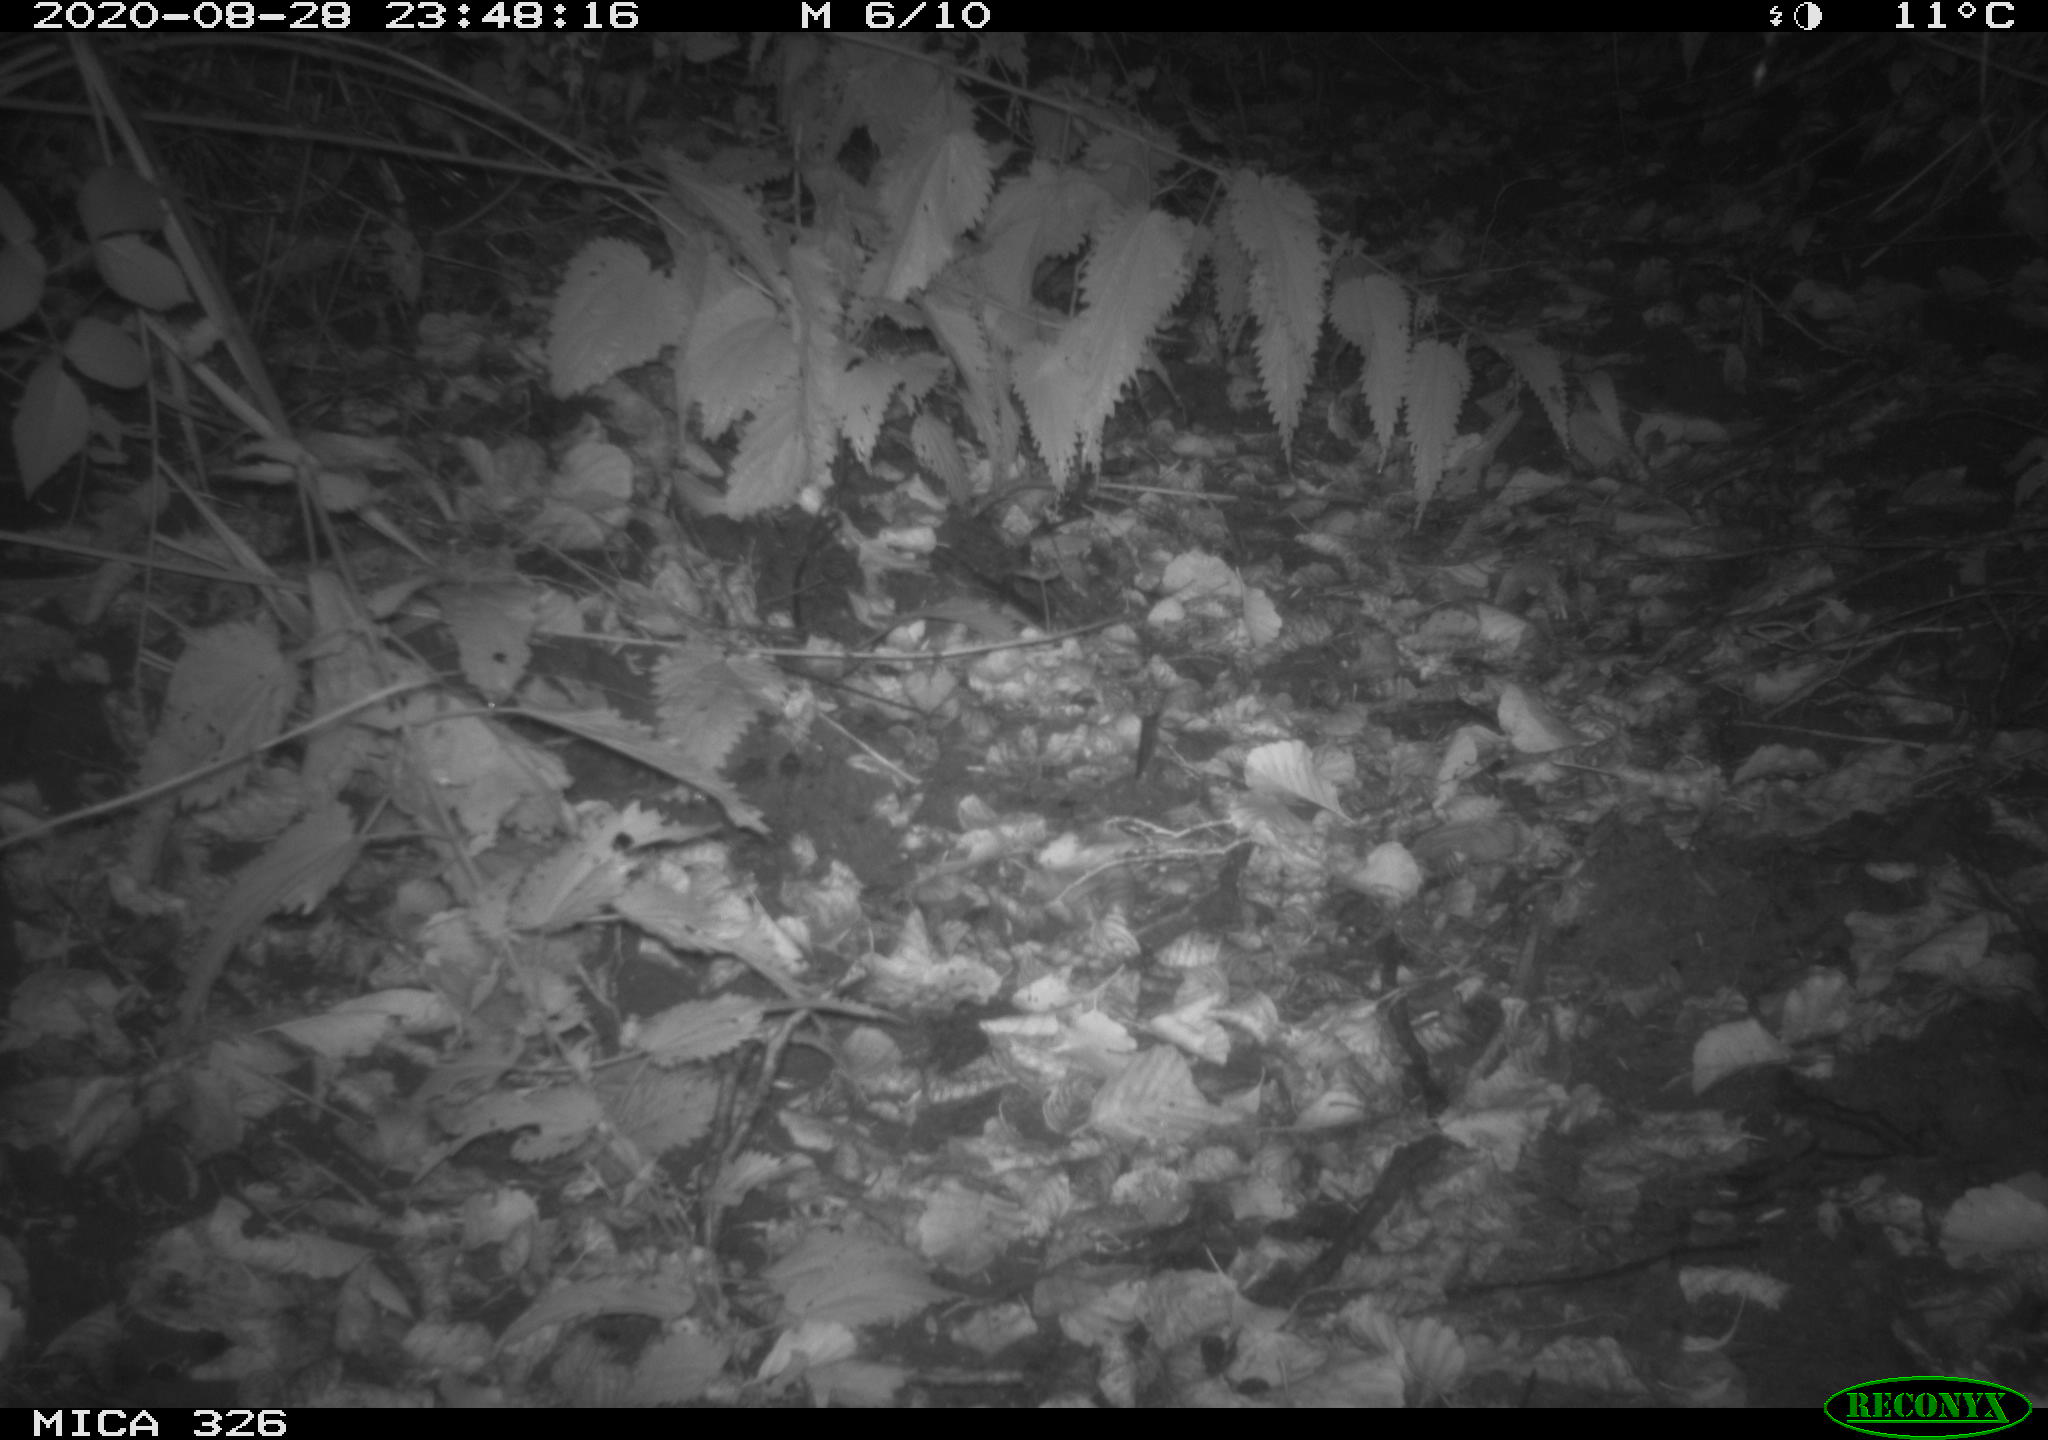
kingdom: Animalia
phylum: Chordata
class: Mammalia
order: Rodentia
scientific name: Rodentia
